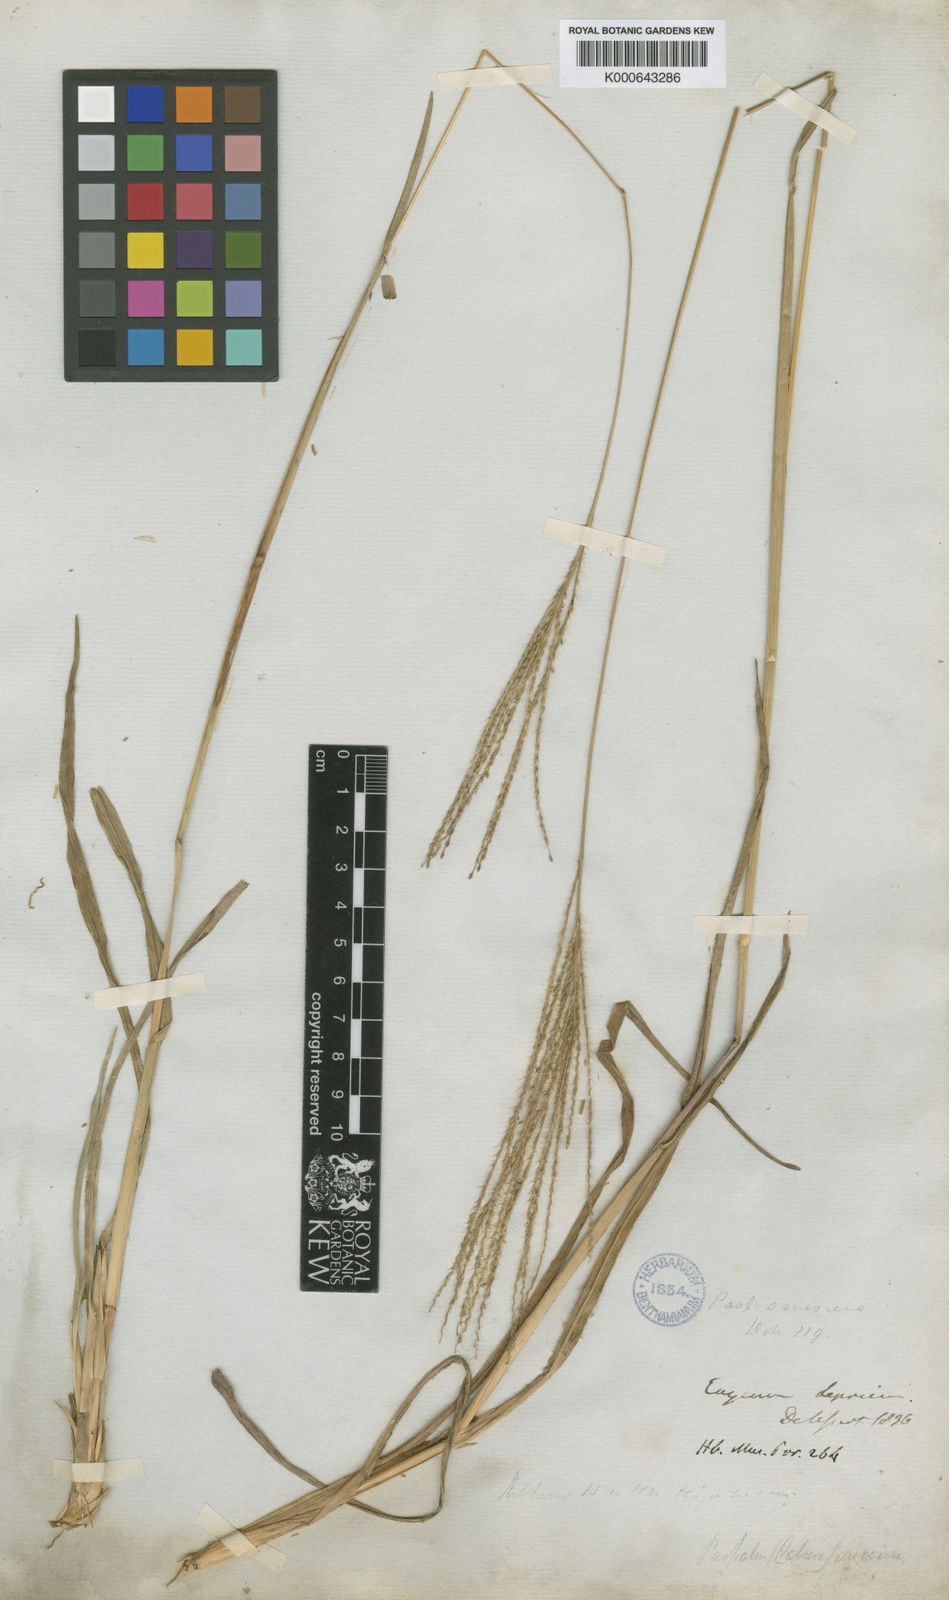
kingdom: Plantae
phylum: Tracheophyta
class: Liliopsida
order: Poales
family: Poaceae
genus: Axonopus
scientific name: Axonopus
